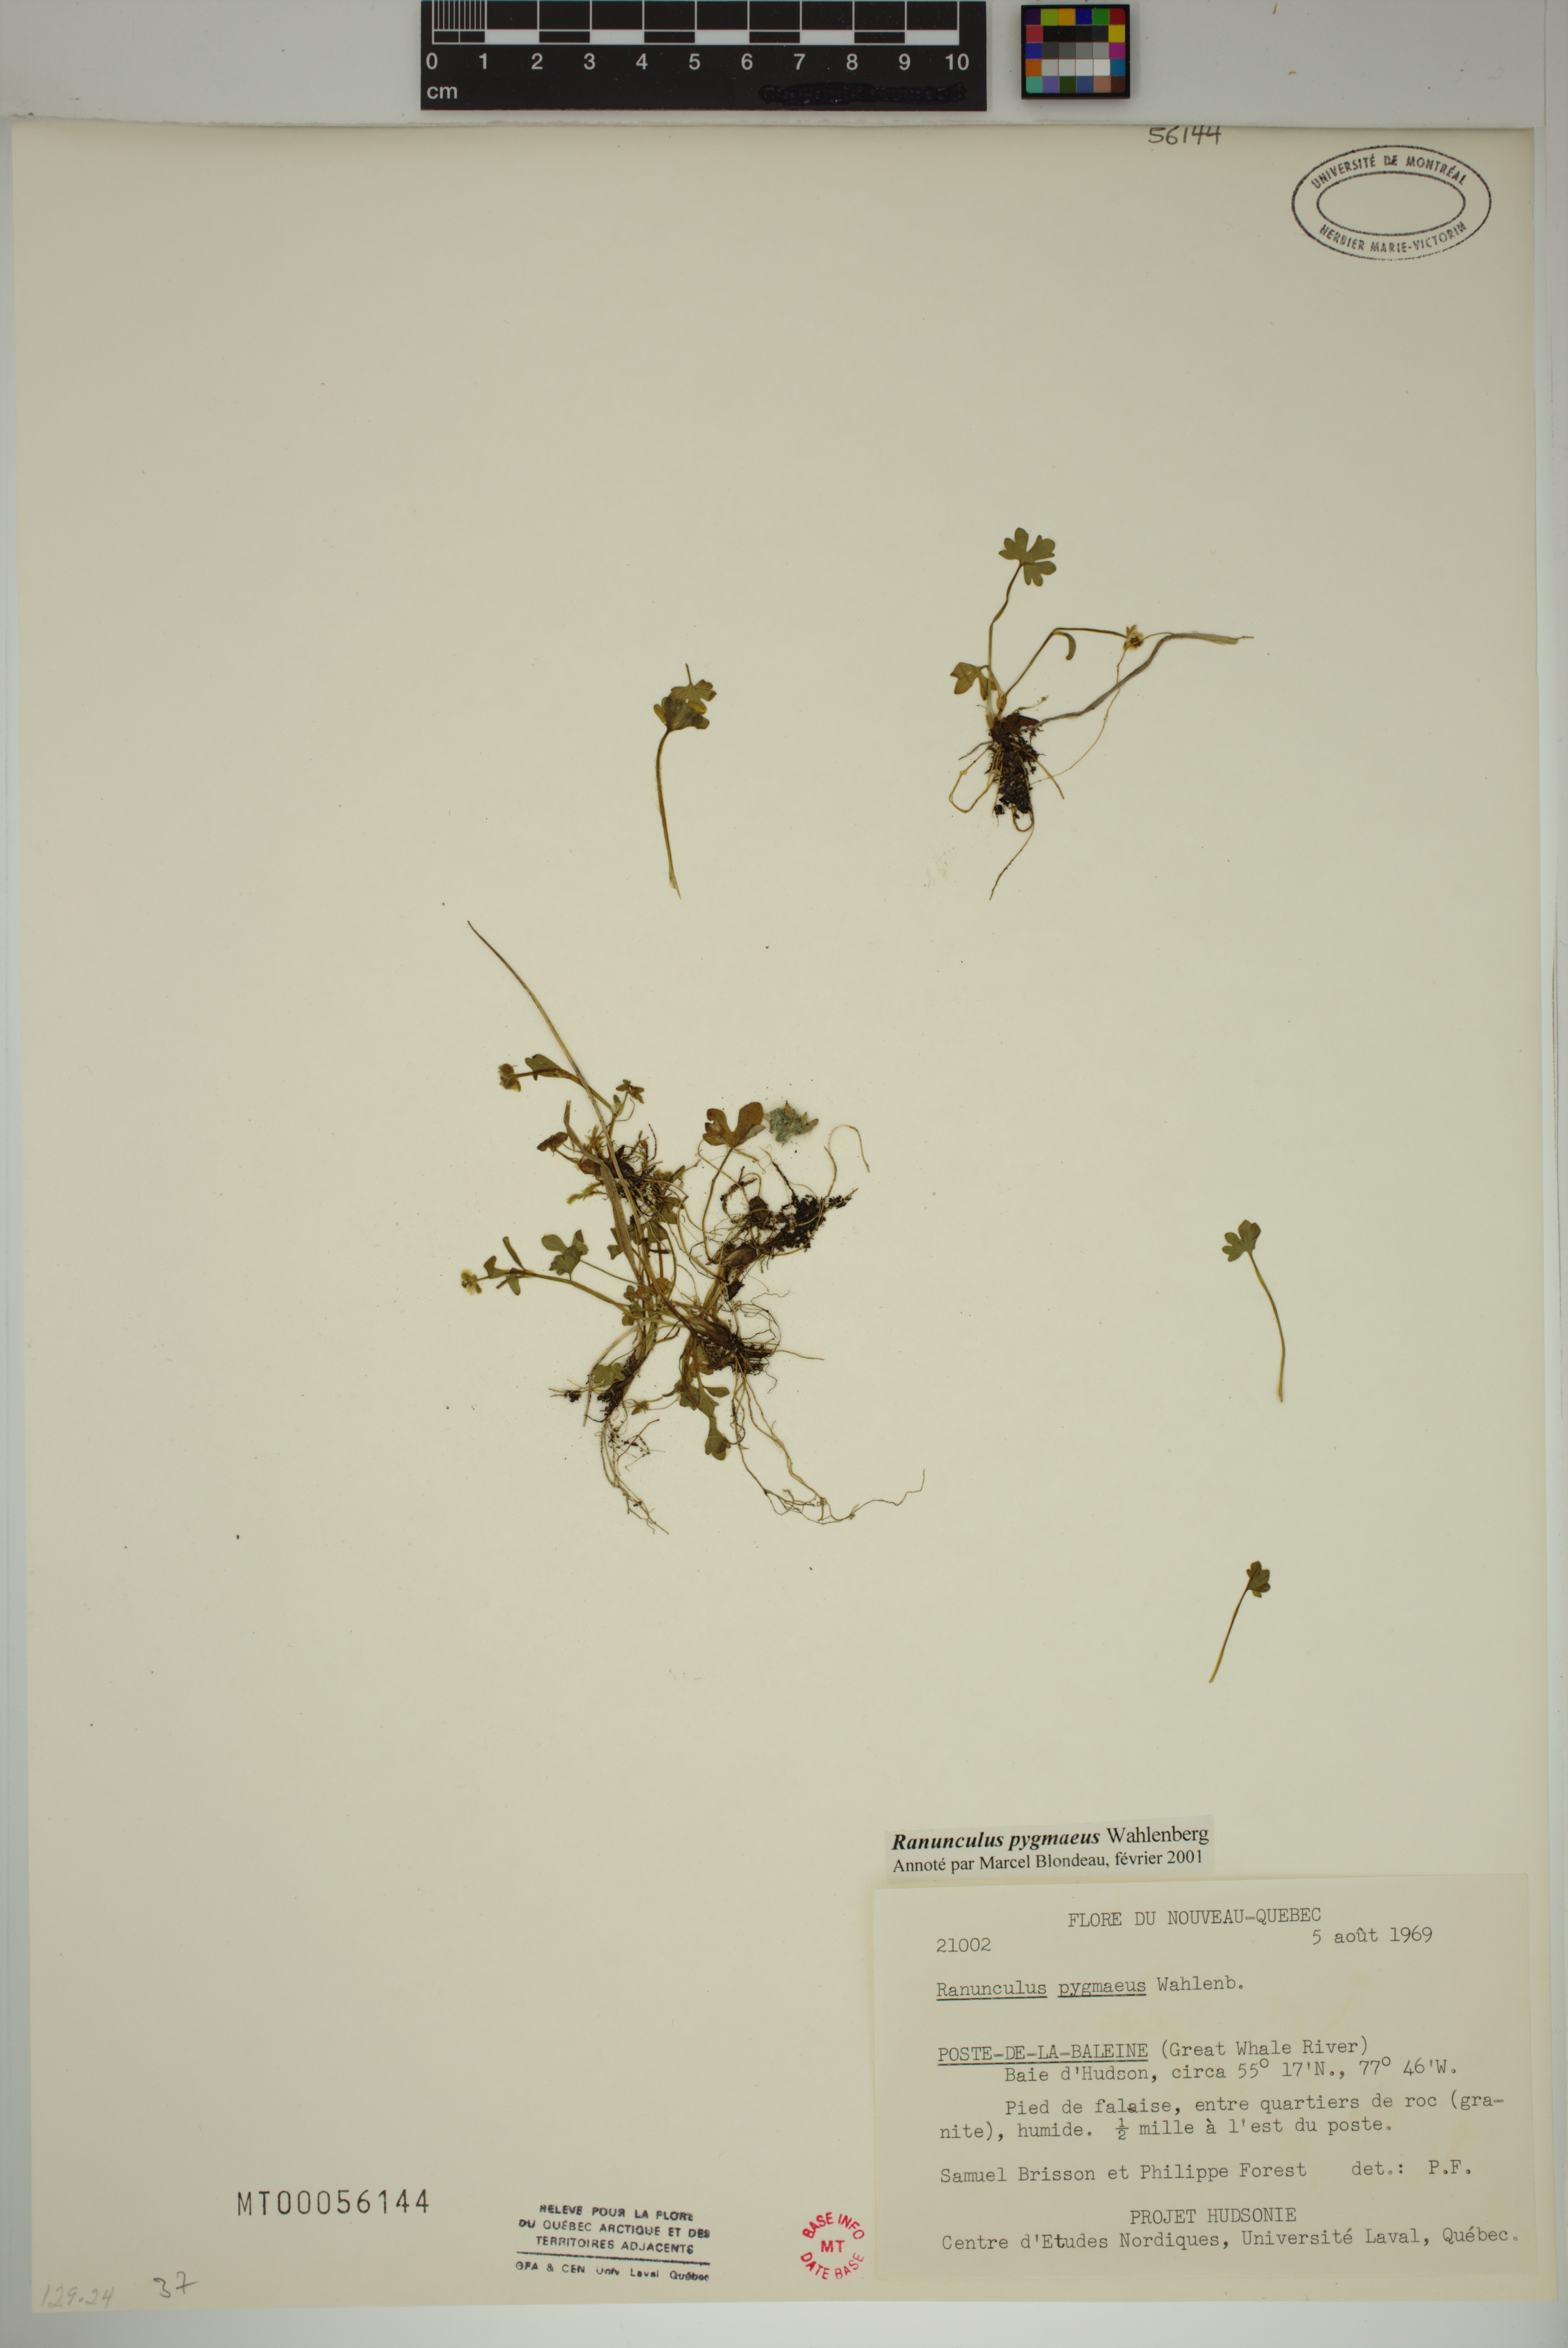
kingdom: Plantae
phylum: Tracheophyta
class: Magnoliopsida
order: Ranunculales
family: Ranunculaceae
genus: Ranunculus
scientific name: Ranunculus pygmaeus
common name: Dwarf buttercup
